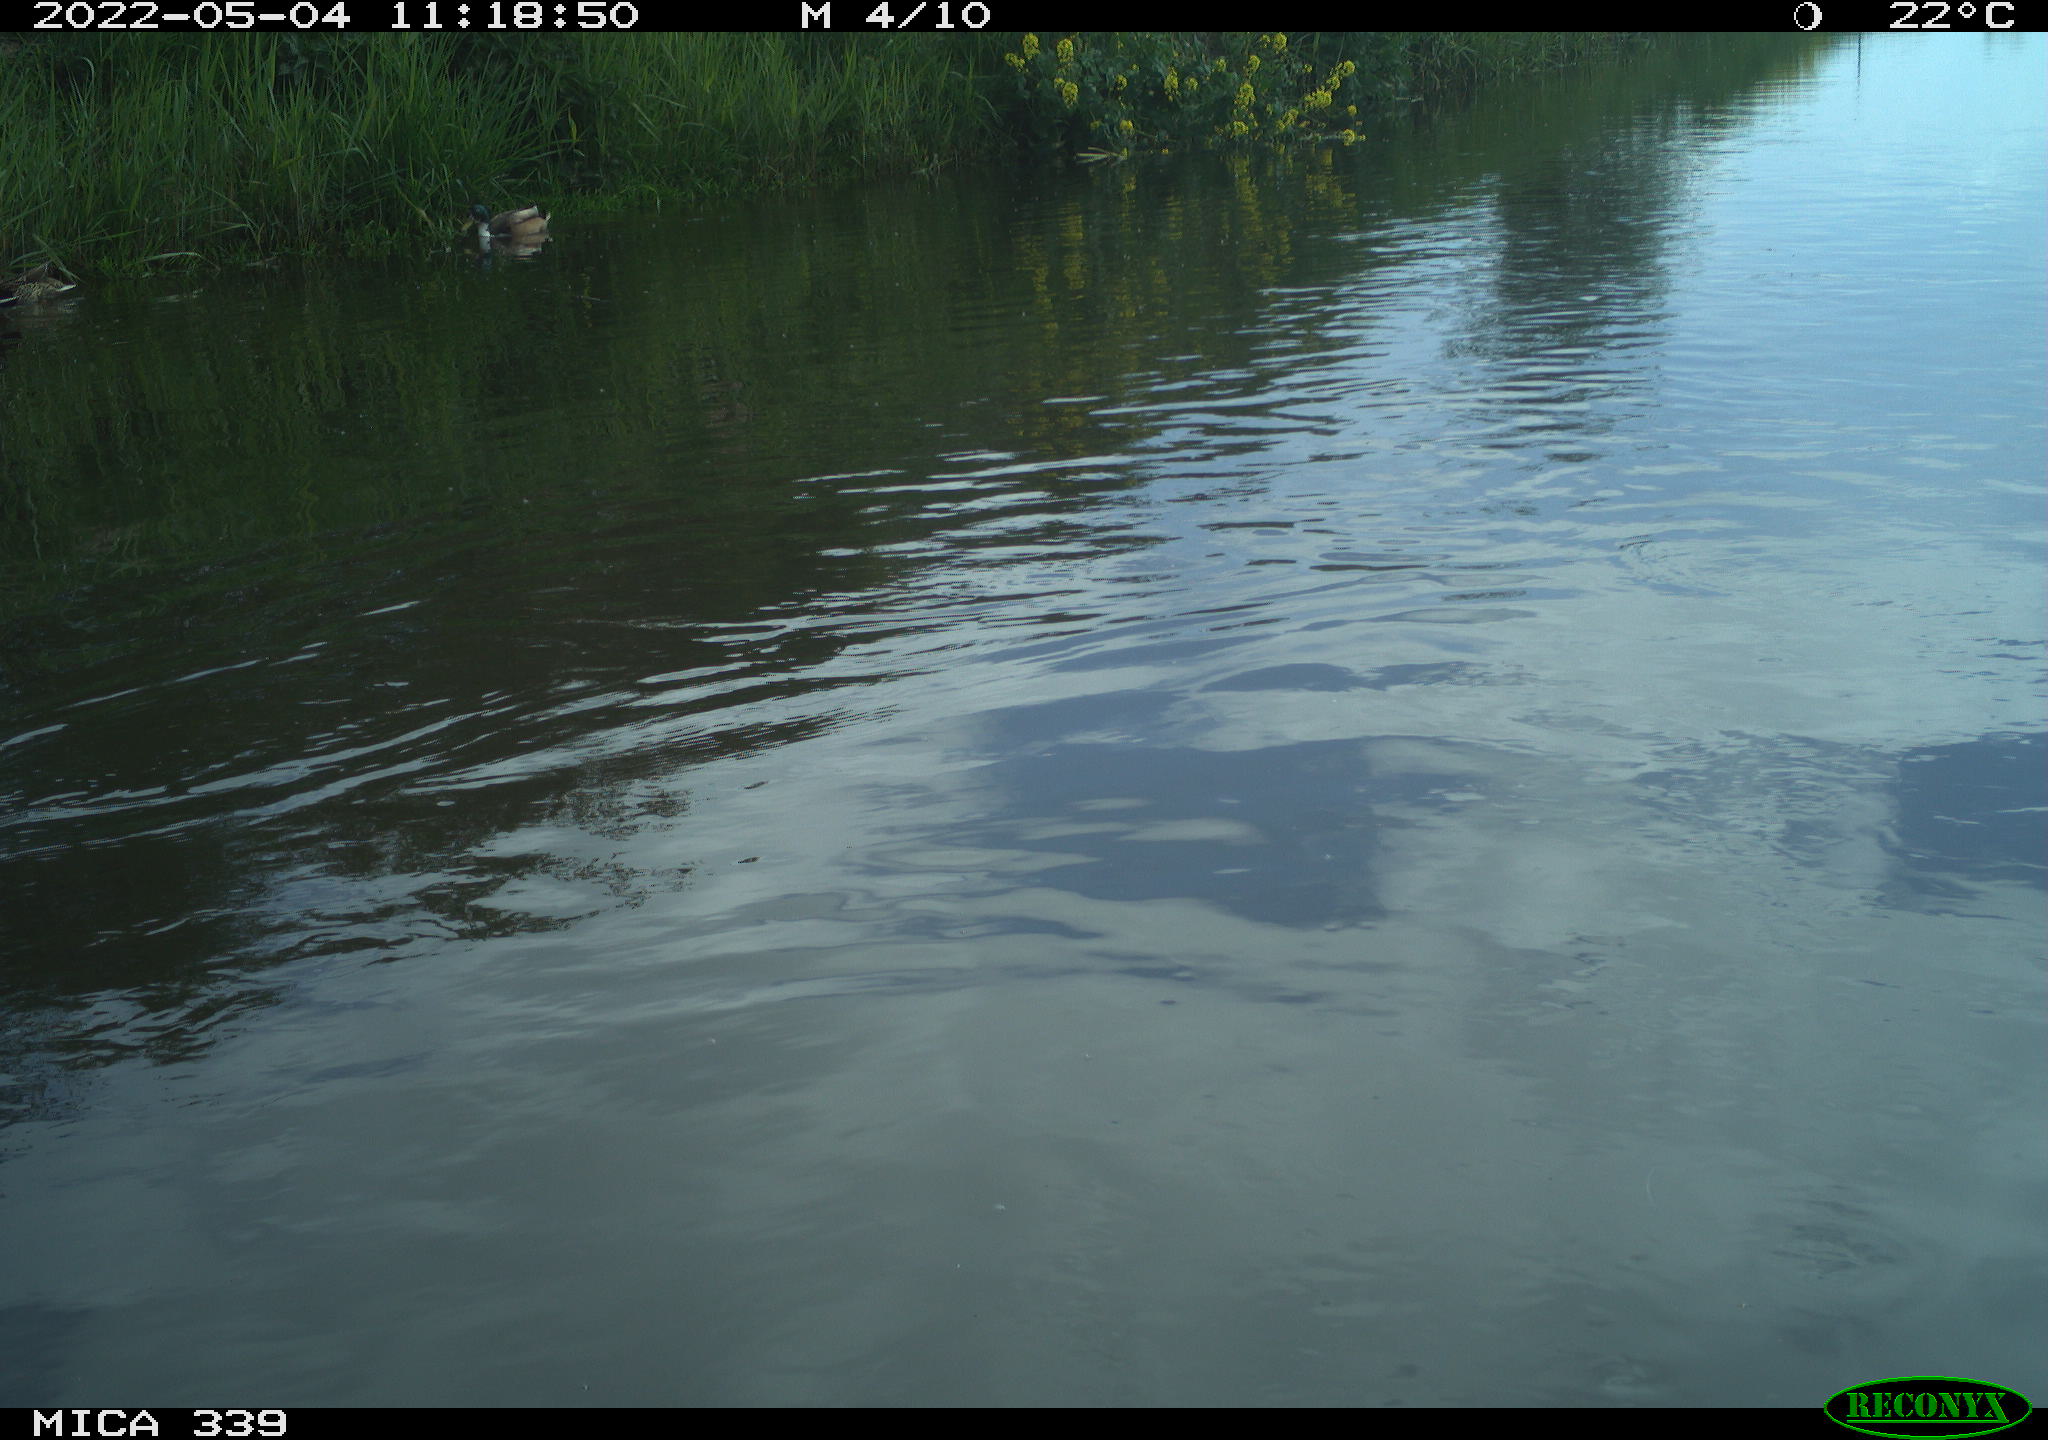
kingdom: Animalia
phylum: Chordata
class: Aves
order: Gruiformes
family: Rallidae
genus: Fulica
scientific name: Fulica atra
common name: Eurasian coot
